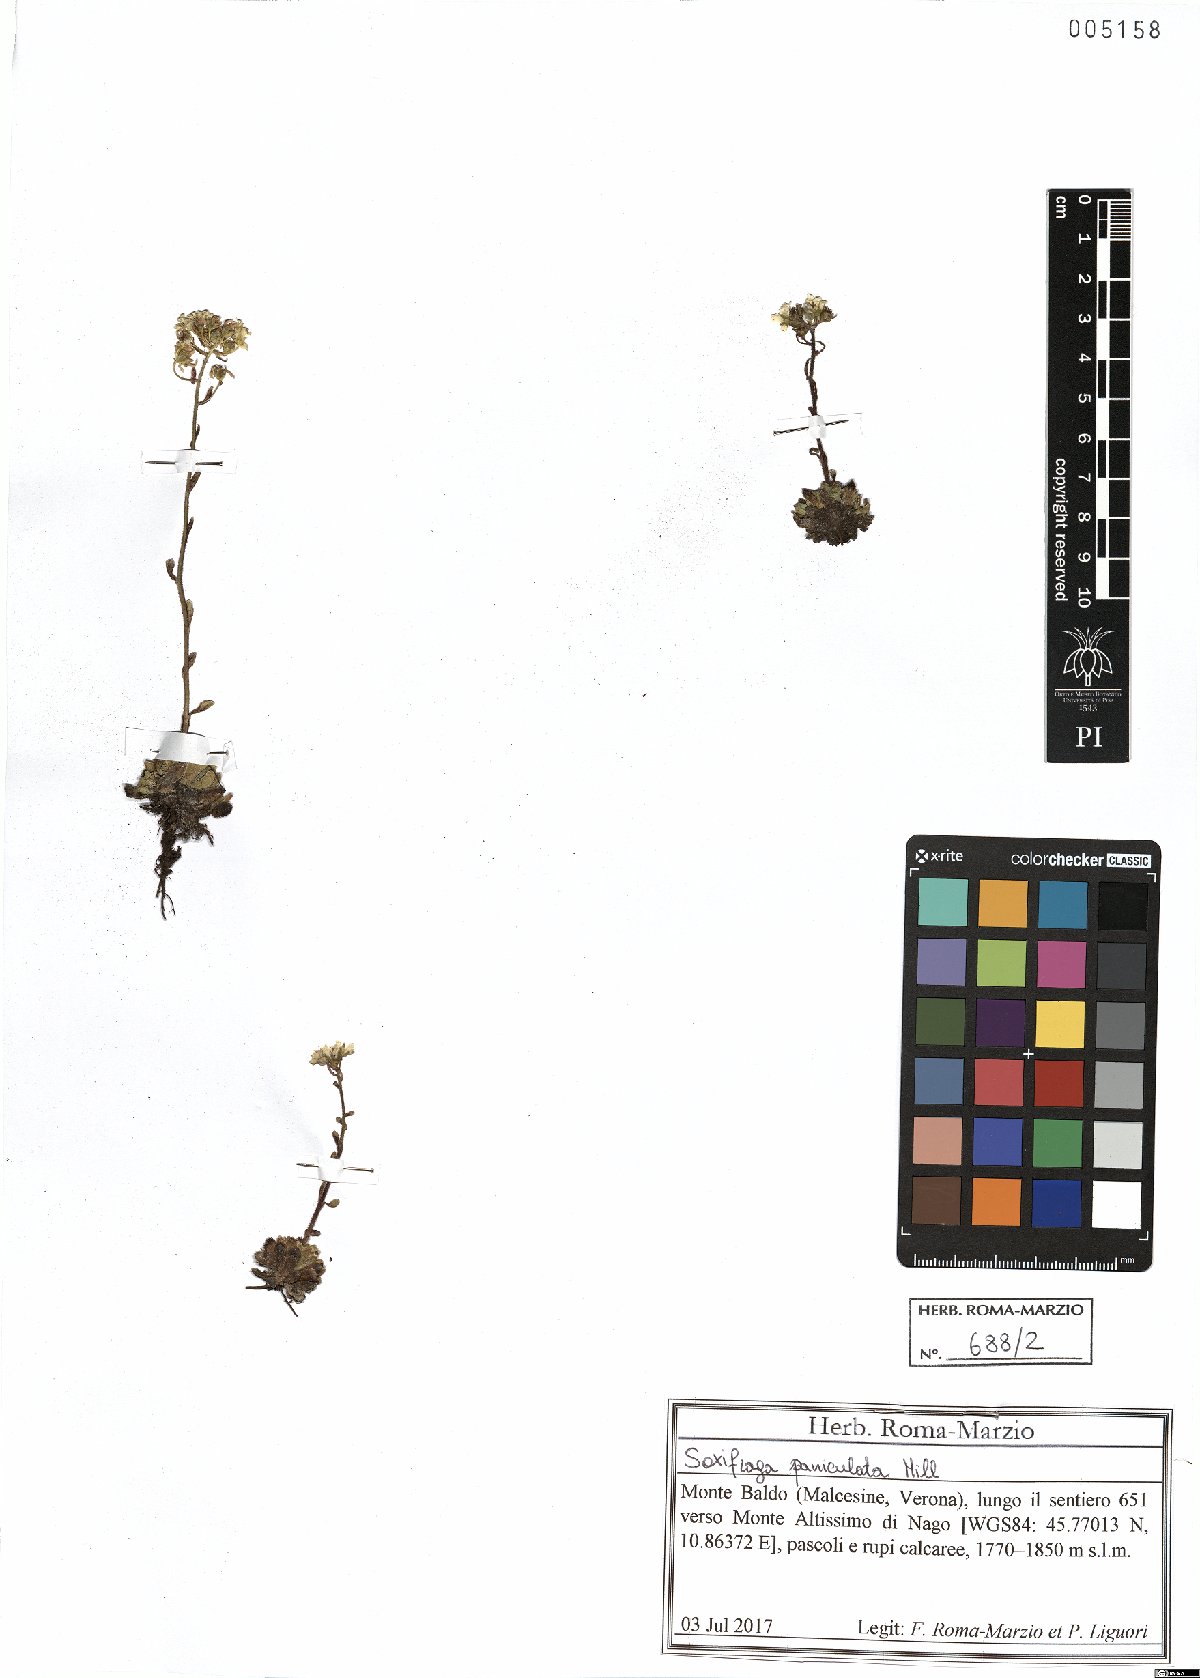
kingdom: Plantae
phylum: Tracheophyta
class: Magnoliopsida
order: Saxifragales
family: Saxifragaceae
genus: Saxifraga
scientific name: Saxifraga paniculata
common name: Livelong saxifrage
